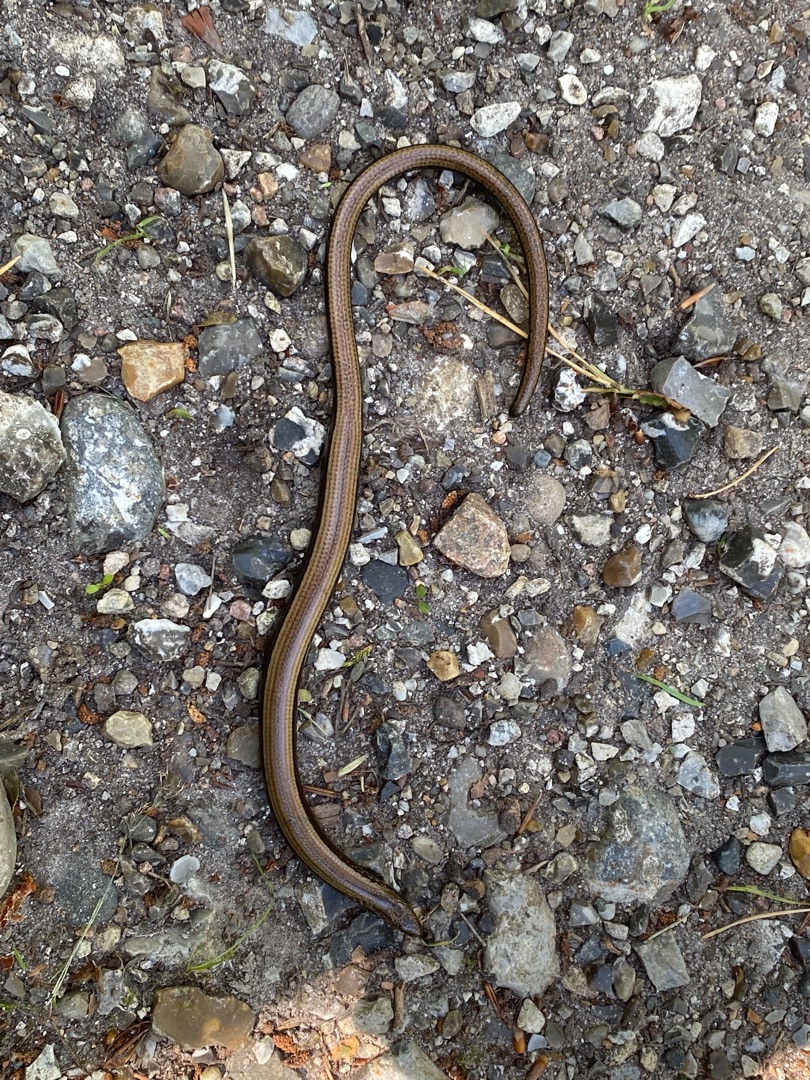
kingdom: Animalia
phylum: Chordata
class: Squamata
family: Anguidae
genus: Anguis
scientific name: Anguis fragilis
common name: Stålorm
